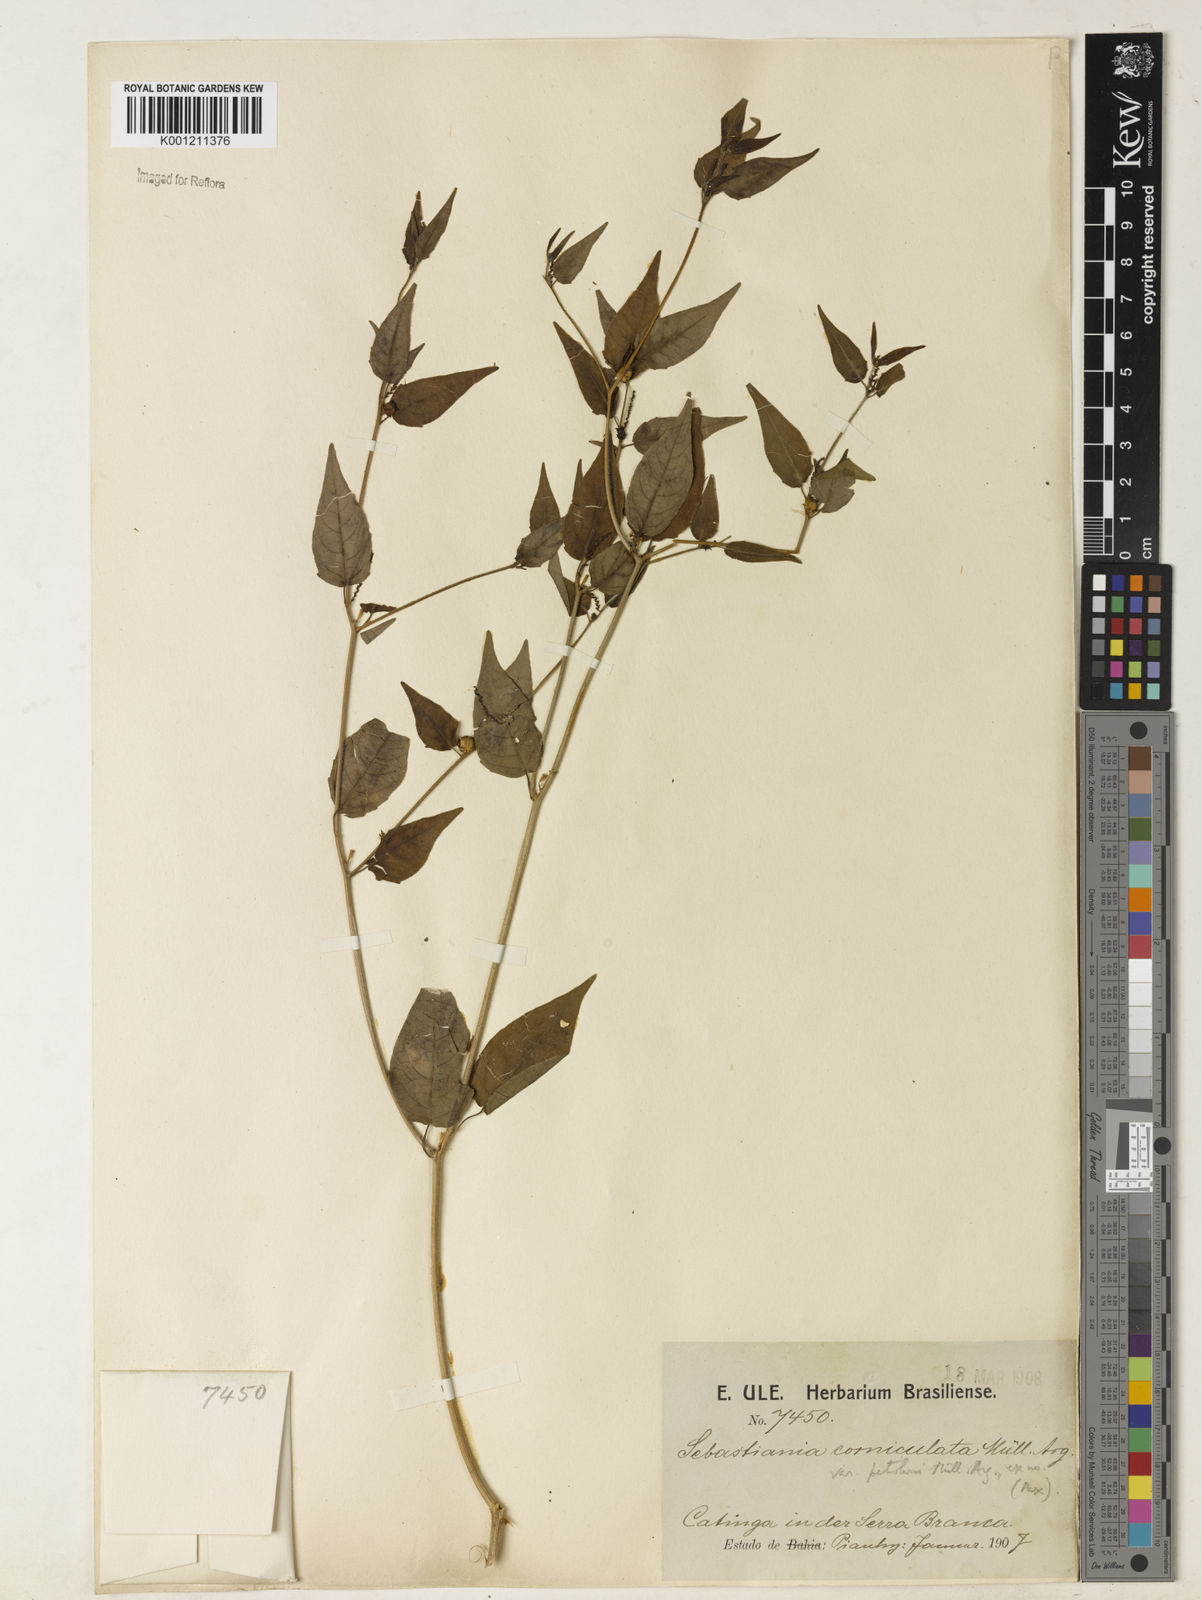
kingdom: Plantae
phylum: Tracheophyta
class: Magnoliopsida
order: Malpighiales
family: Euphorbiaceae
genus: Microstachys
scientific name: Microstachys corniculata
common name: Hato tejas
